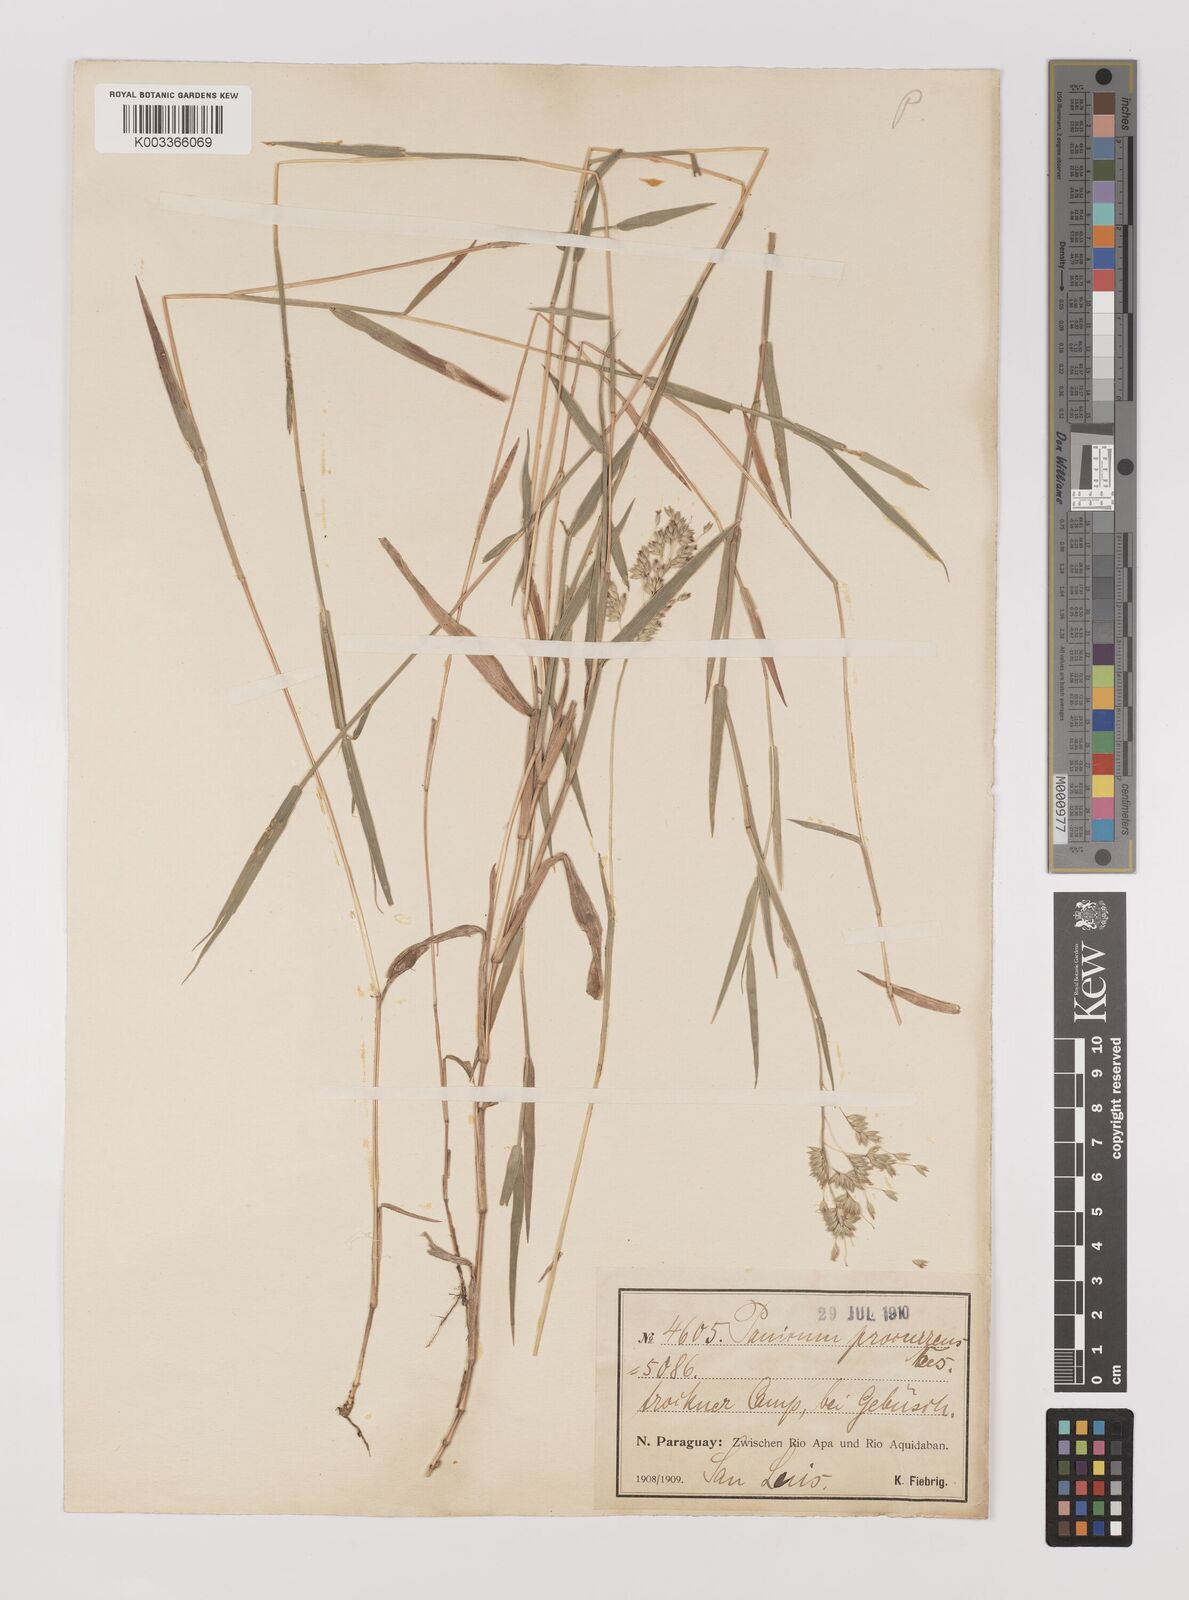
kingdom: Plantae
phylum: Tracheophyta
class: Liliopsida
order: Poales
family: Poaceae
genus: Oedochloa
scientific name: Oedochloa procurrens
